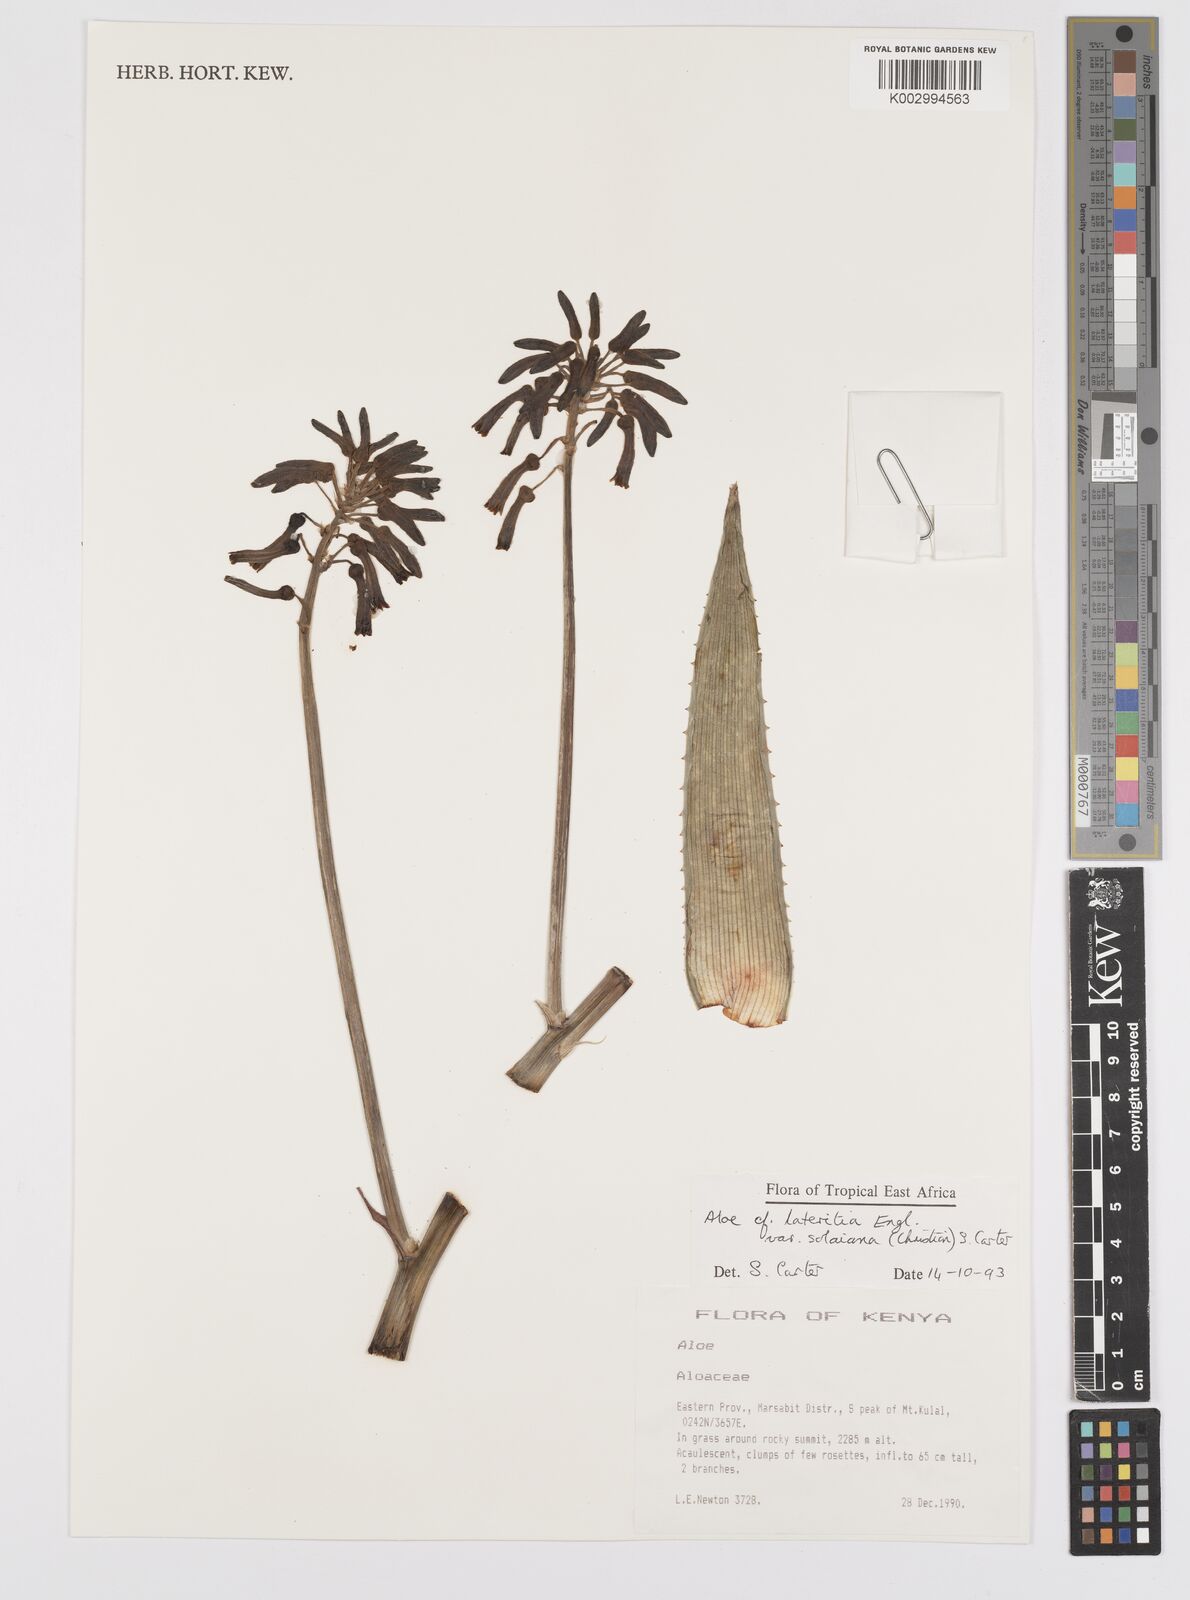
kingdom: Plantae
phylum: Tracheophyta
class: Liliopsida
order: Asparagales
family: Asphodelaceae
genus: Aloe
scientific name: Aloe lateritia
